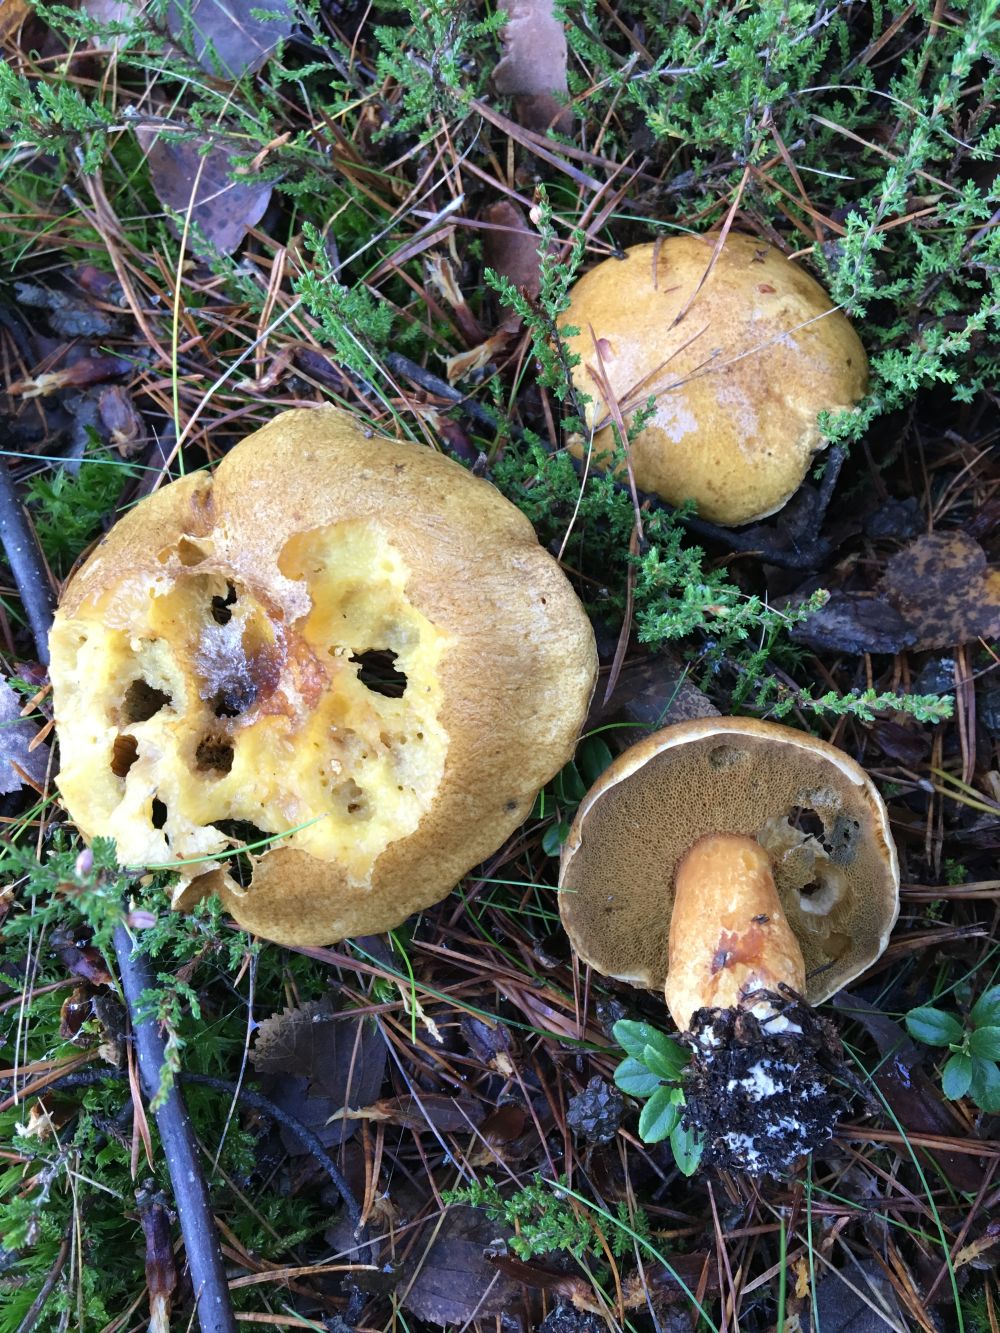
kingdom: Fungi
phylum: Basidiomycota
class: Agaricomycetes
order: Boletales
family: Suillaceae
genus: Suillus
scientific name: Suillus variegatus
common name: Velvet bolete
